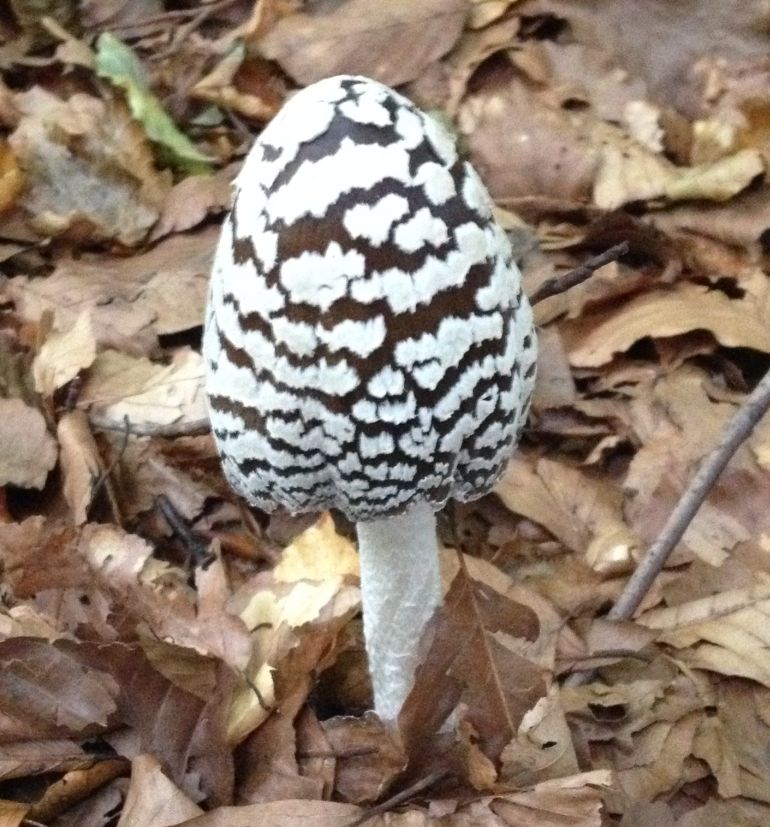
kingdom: Fungi
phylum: Basidiomycota
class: Agaricomycetes
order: Agaricales
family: Psathyrellaceae
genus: Coprinopsis
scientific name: Coprinopsis picacea
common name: skade-blækhat
